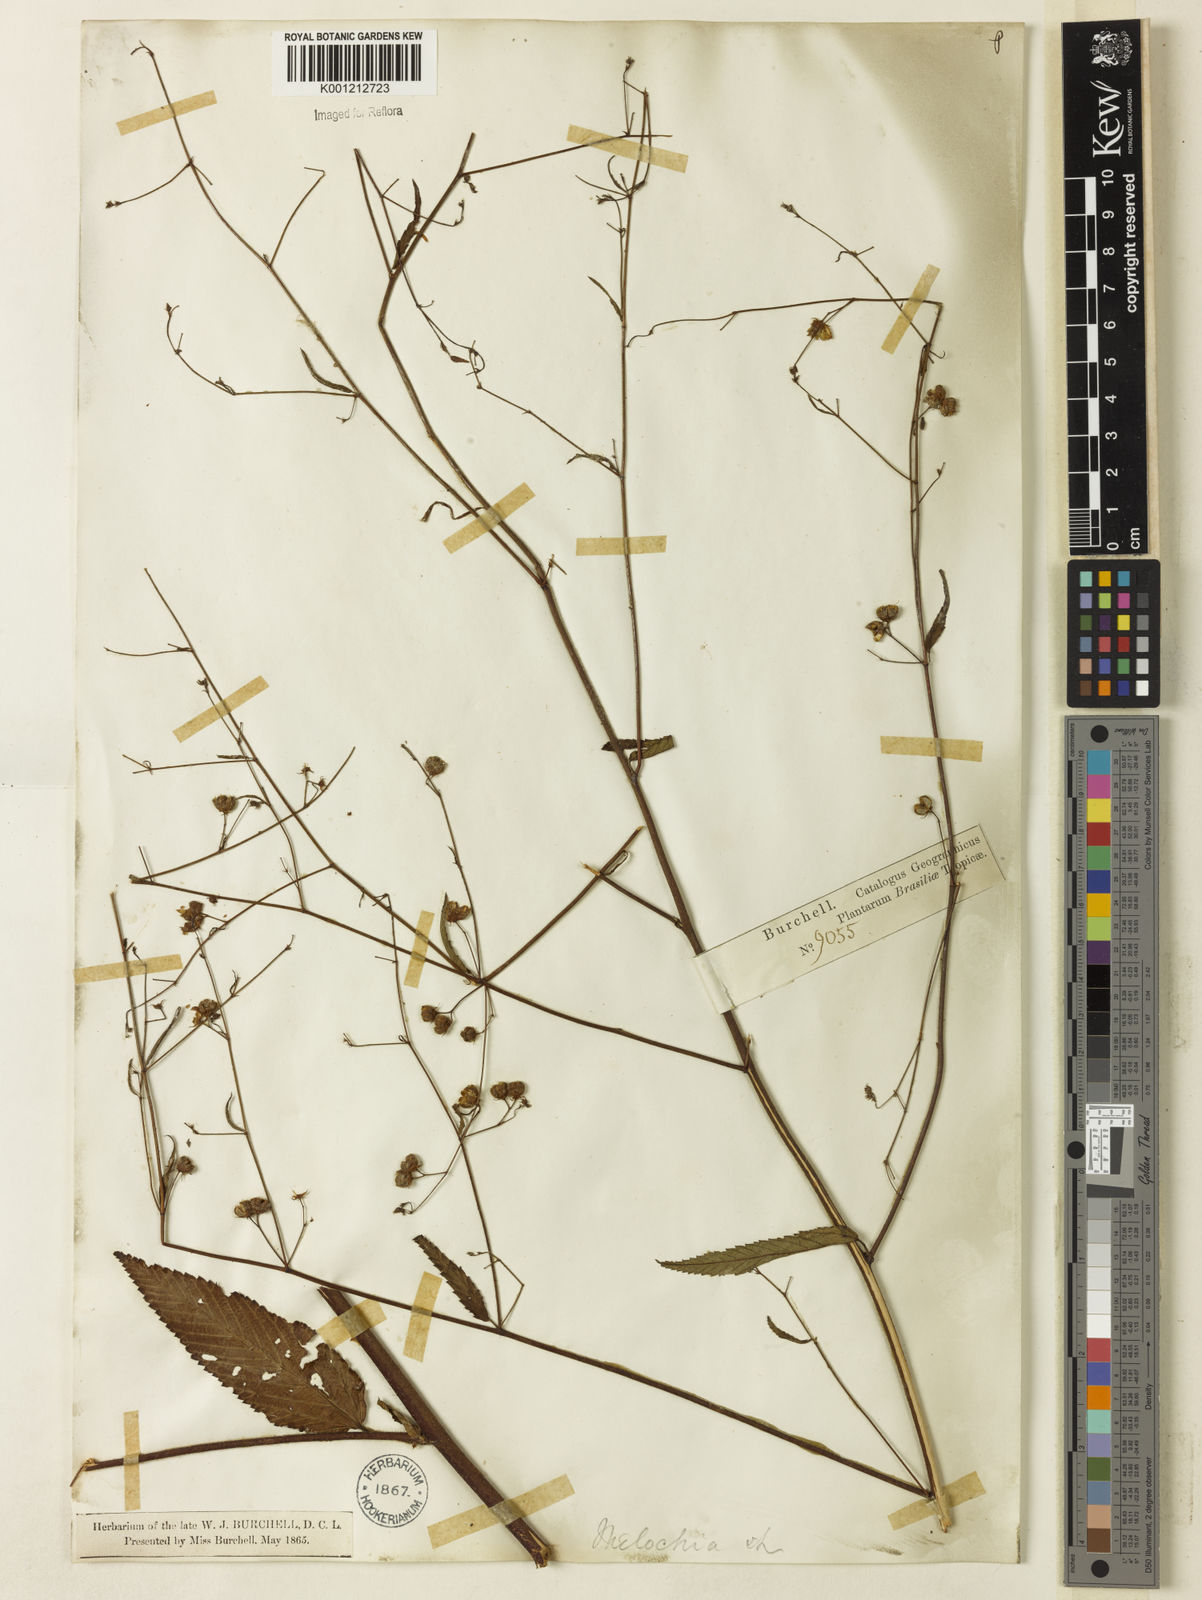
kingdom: Plantae
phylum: Tracheophyta
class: Magnoliopsida
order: Malvales
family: Malvaceae
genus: Melochia
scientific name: Melochia simplex
